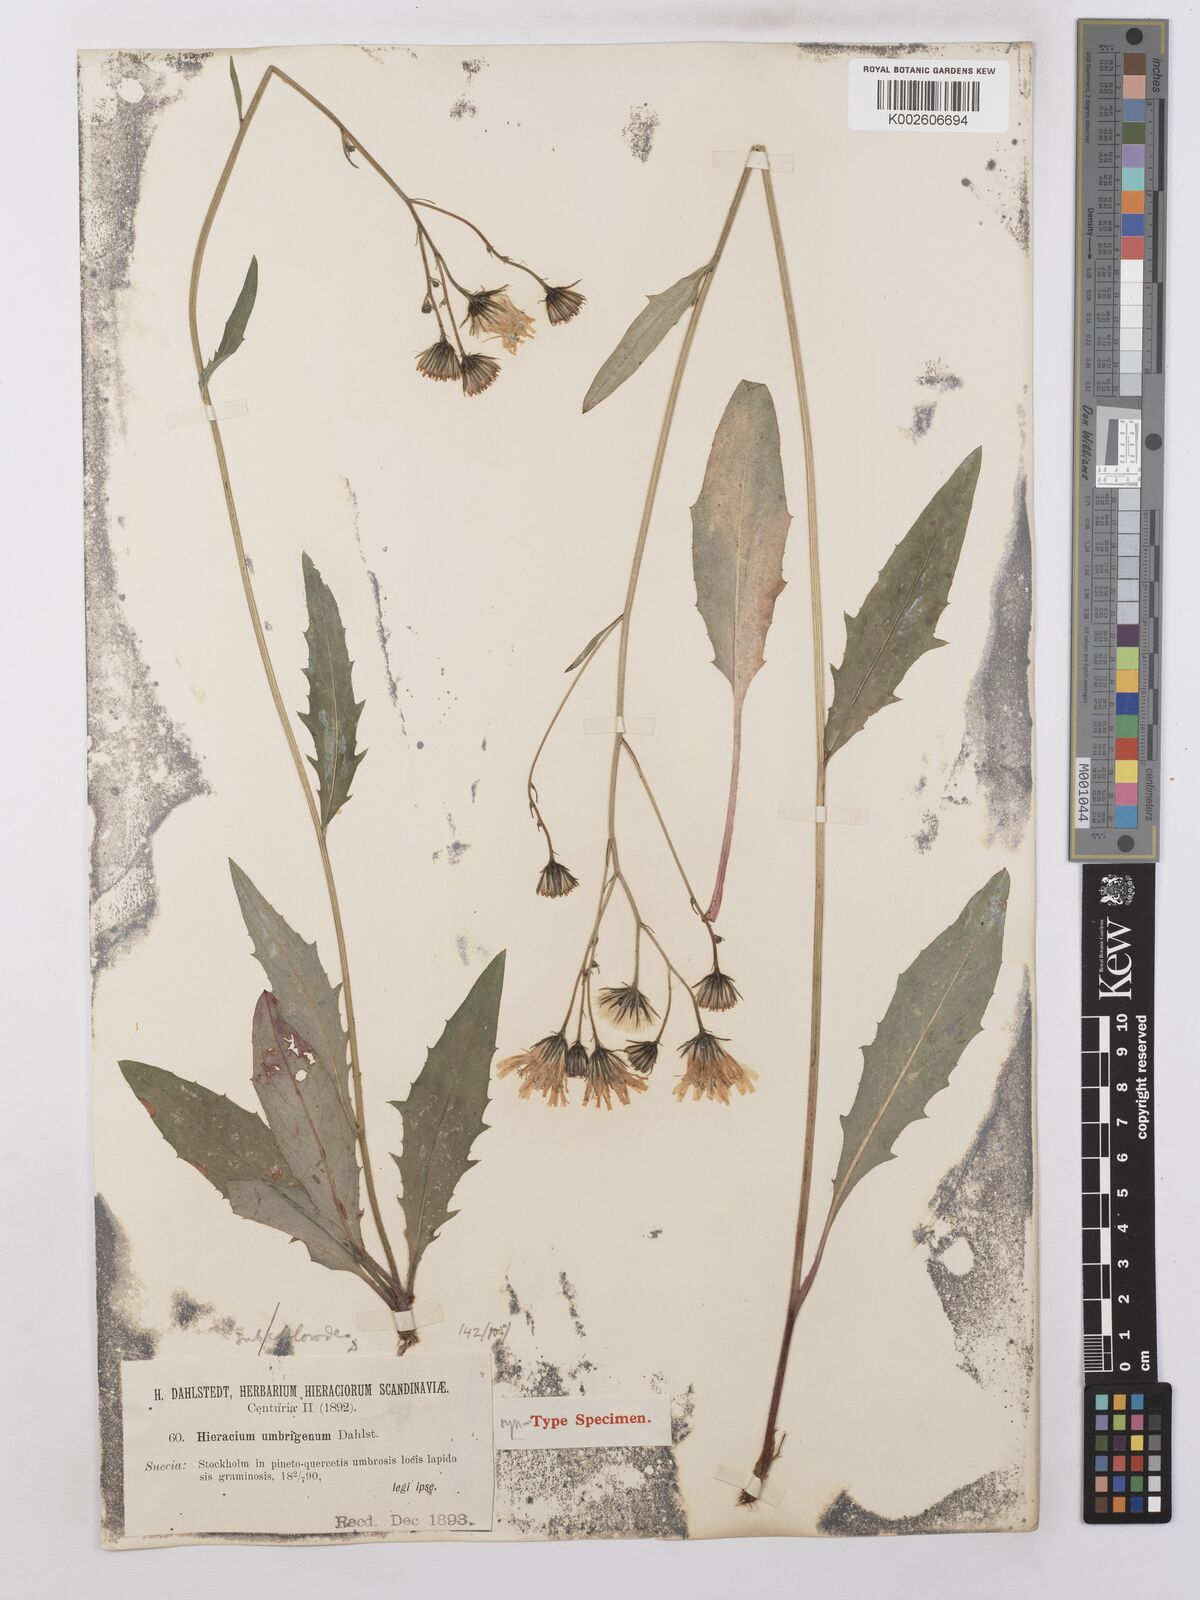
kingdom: Plantae
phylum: Tracheophyta
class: Magnoliopsida
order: Asterales
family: Asteraceae
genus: Hieracium
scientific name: Hieracium lachenalii
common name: Common hawkweed
